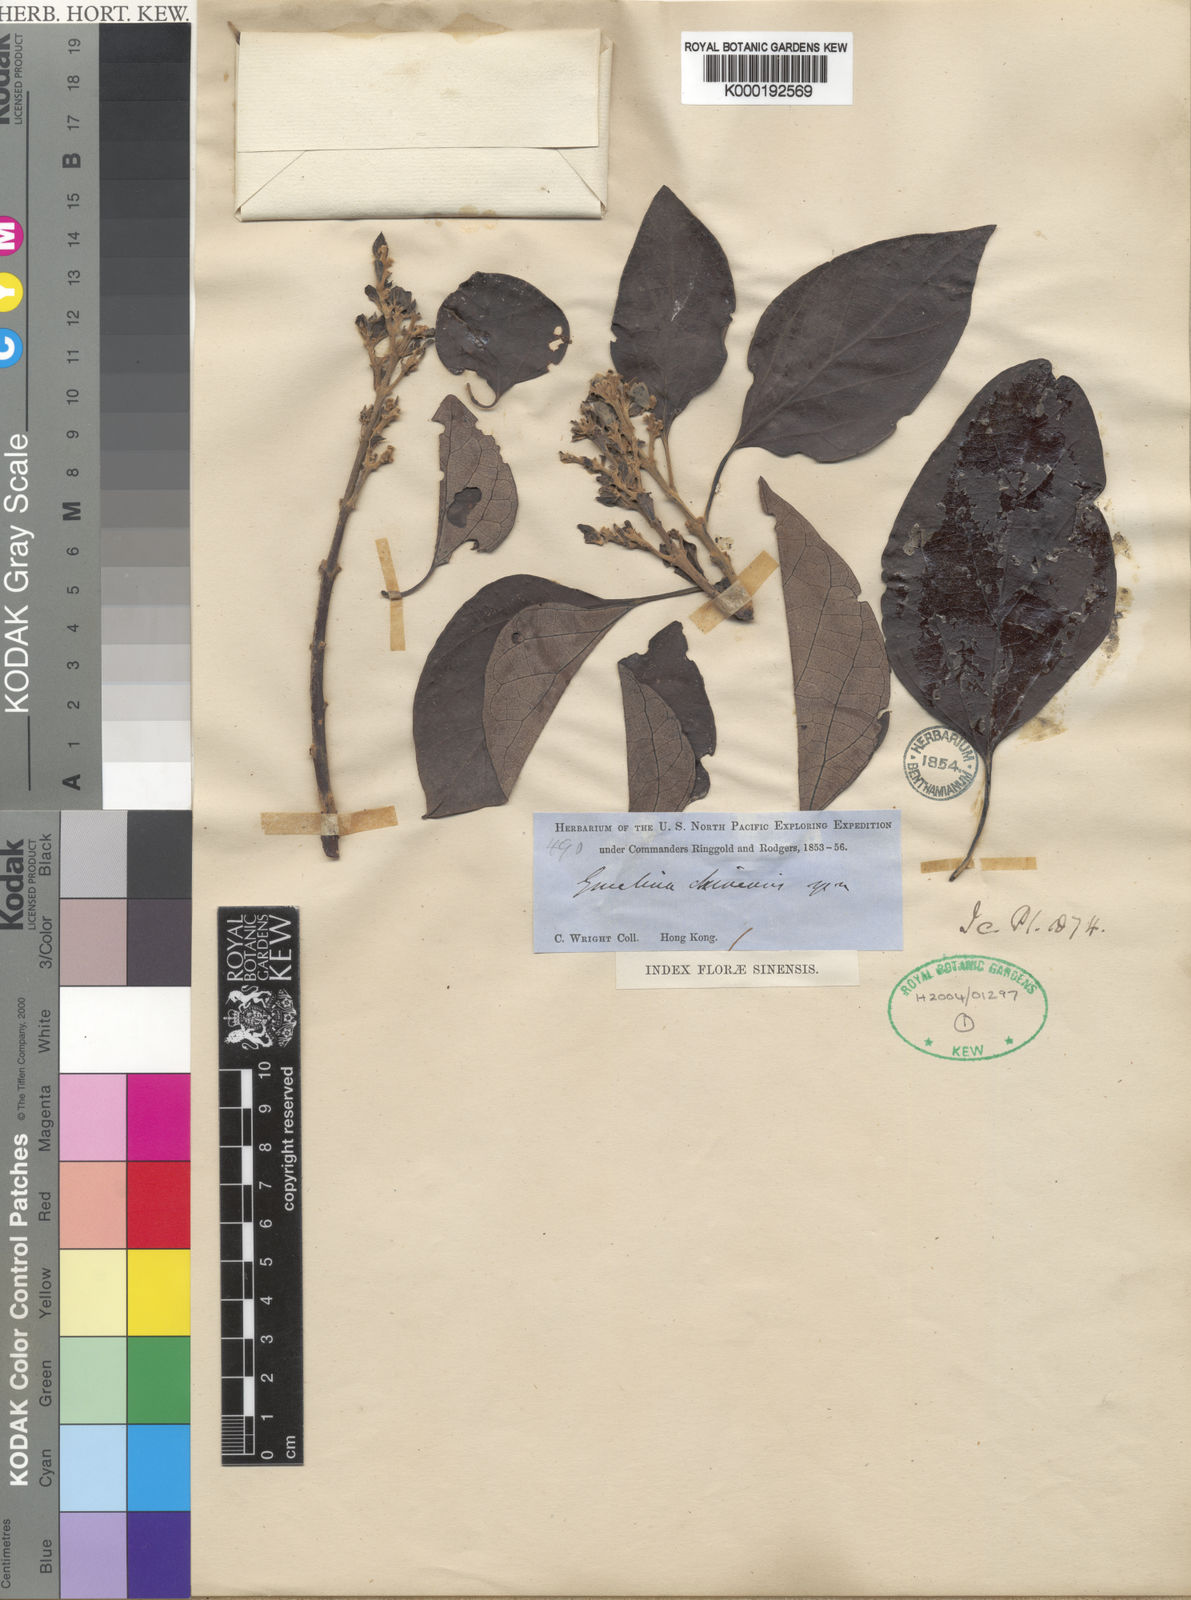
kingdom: Plantae
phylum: Tracheophyta
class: Magnoliopsida
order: Lamiales
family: Lamiaceae
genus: Gmelina
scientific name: Gmelina chinensis
